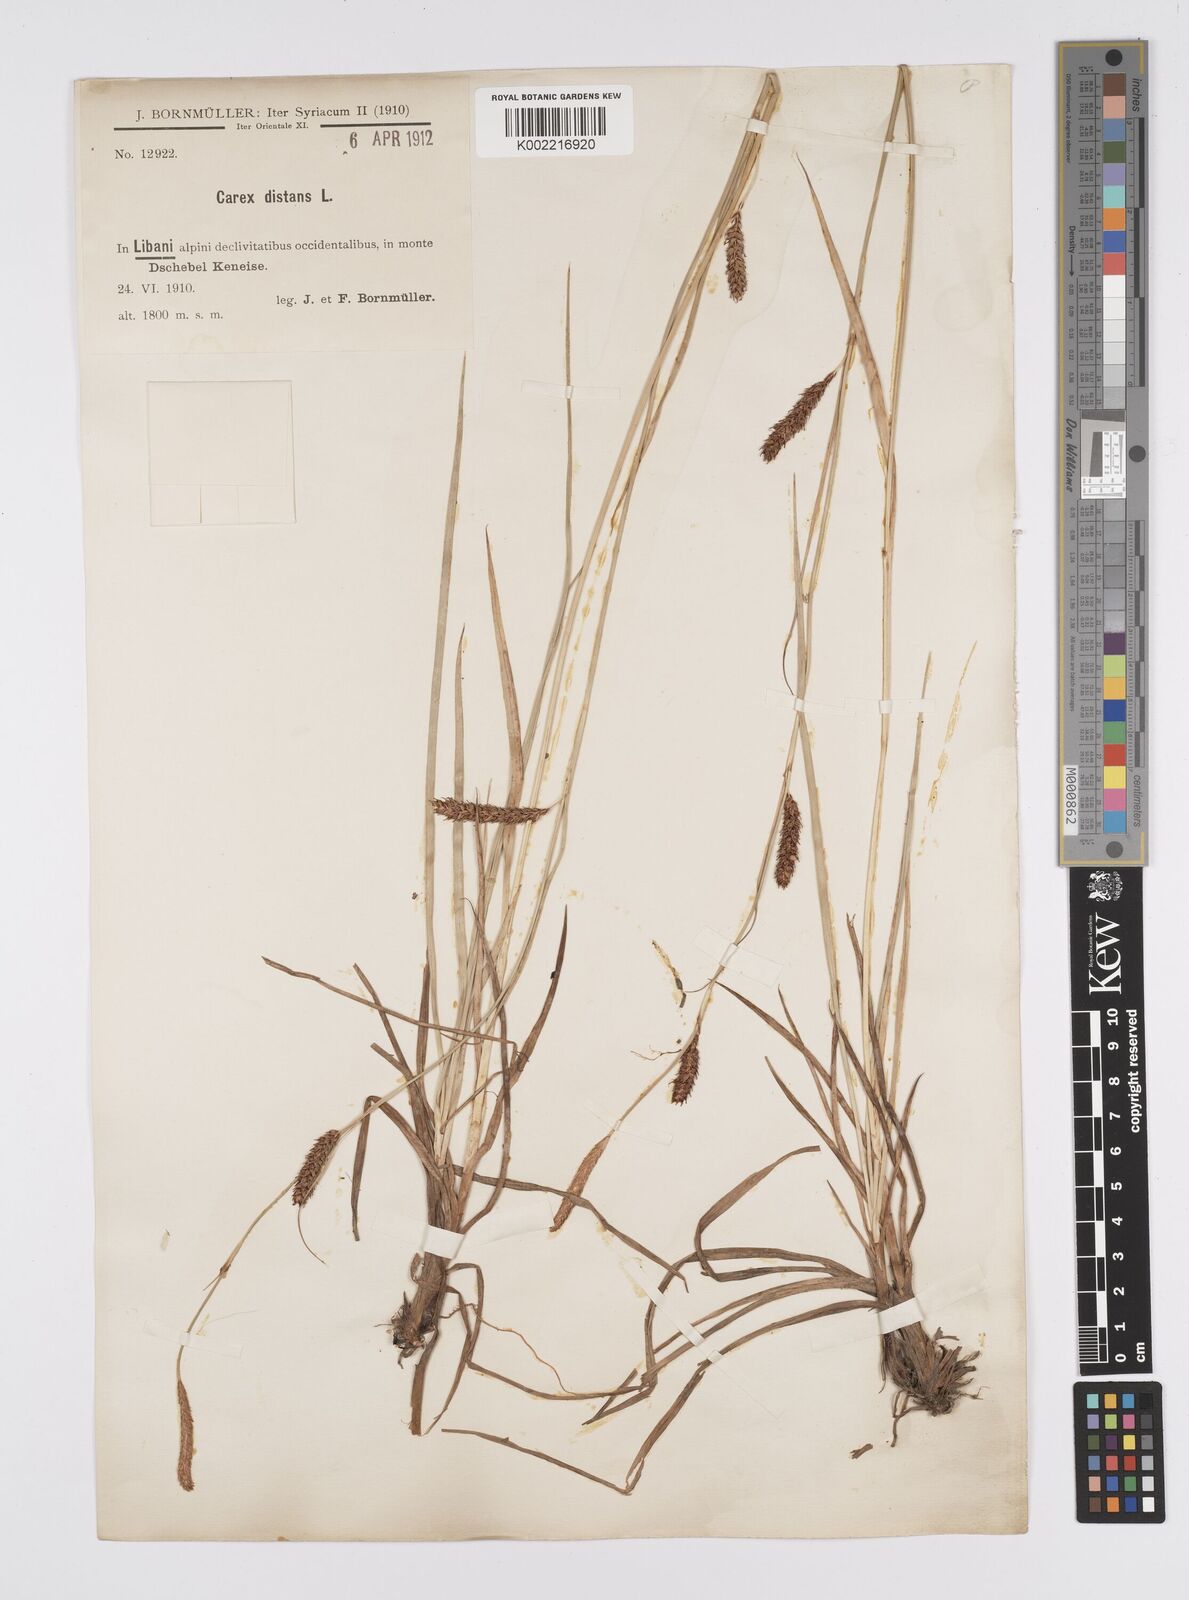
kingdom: Plantae
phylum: Tracheophyta
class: Liliopsida
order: Poales
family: Cyperaceae
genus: Carex
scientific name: Carex distans
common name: Distant sedge
